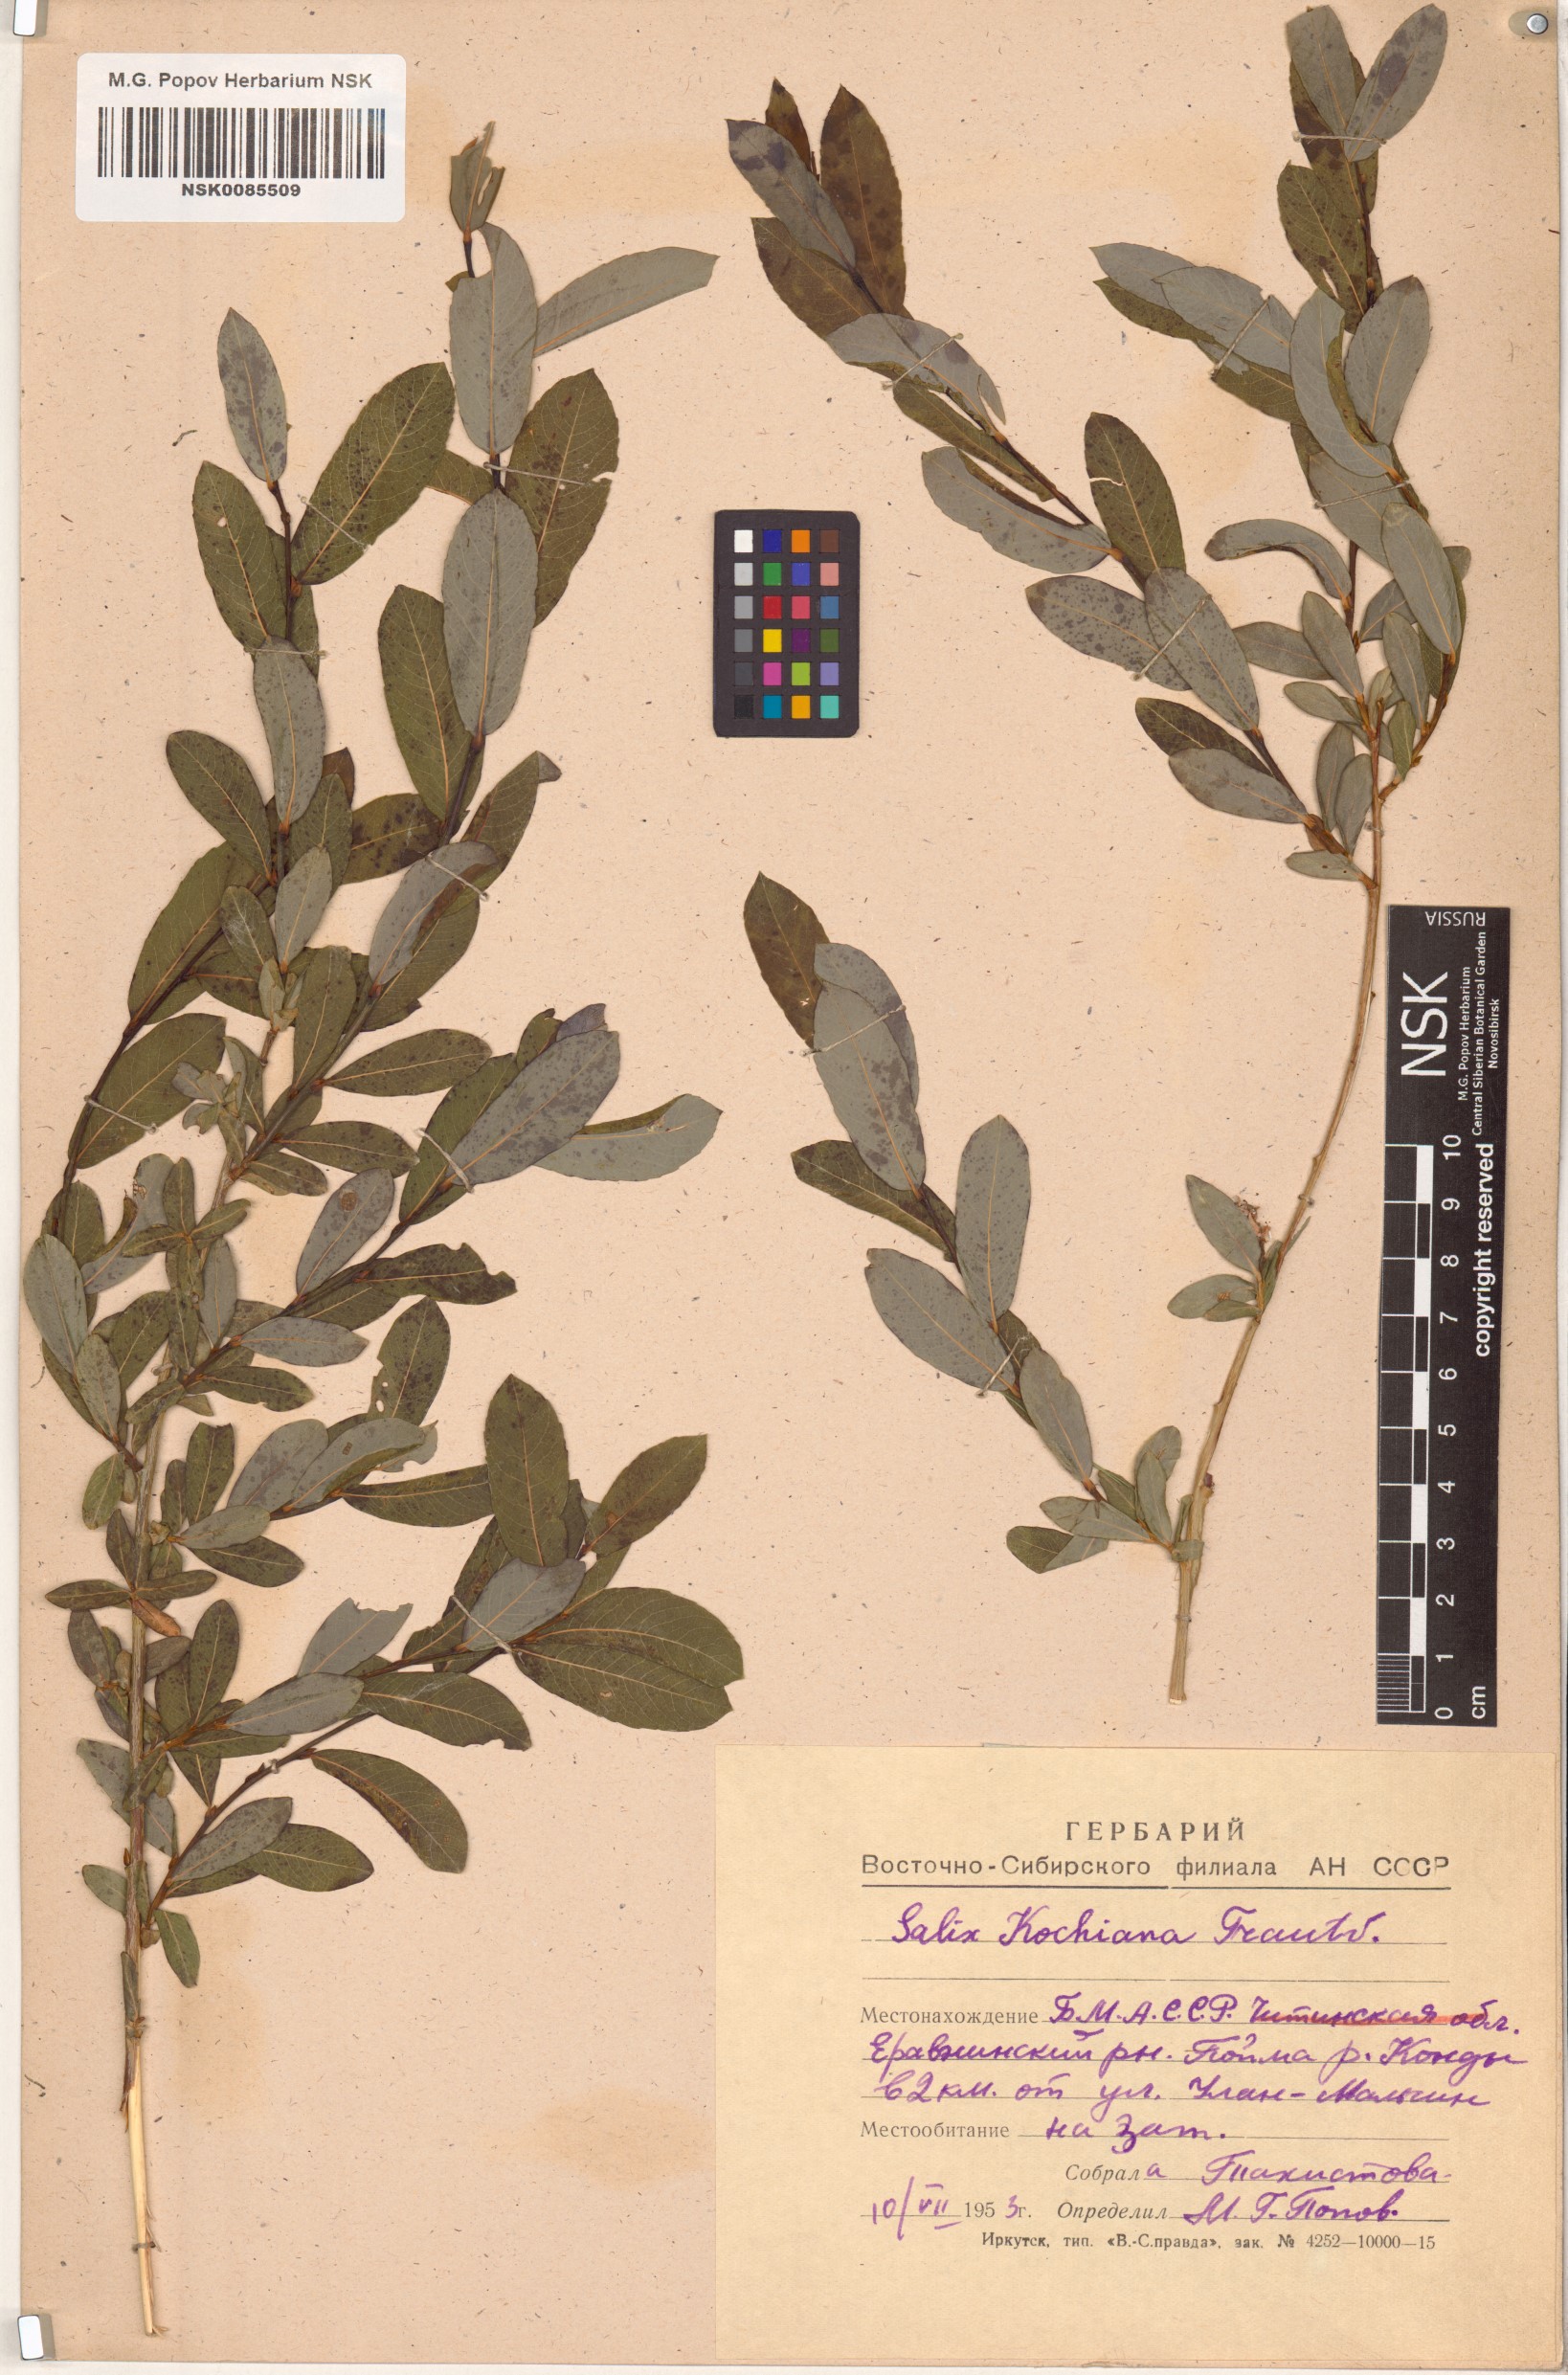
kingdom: Plantae
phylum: Tracheophyta
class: Magnoliopsida
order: Malpighiales
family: Salicaceae
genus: Salix
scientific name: Salix kochiana
